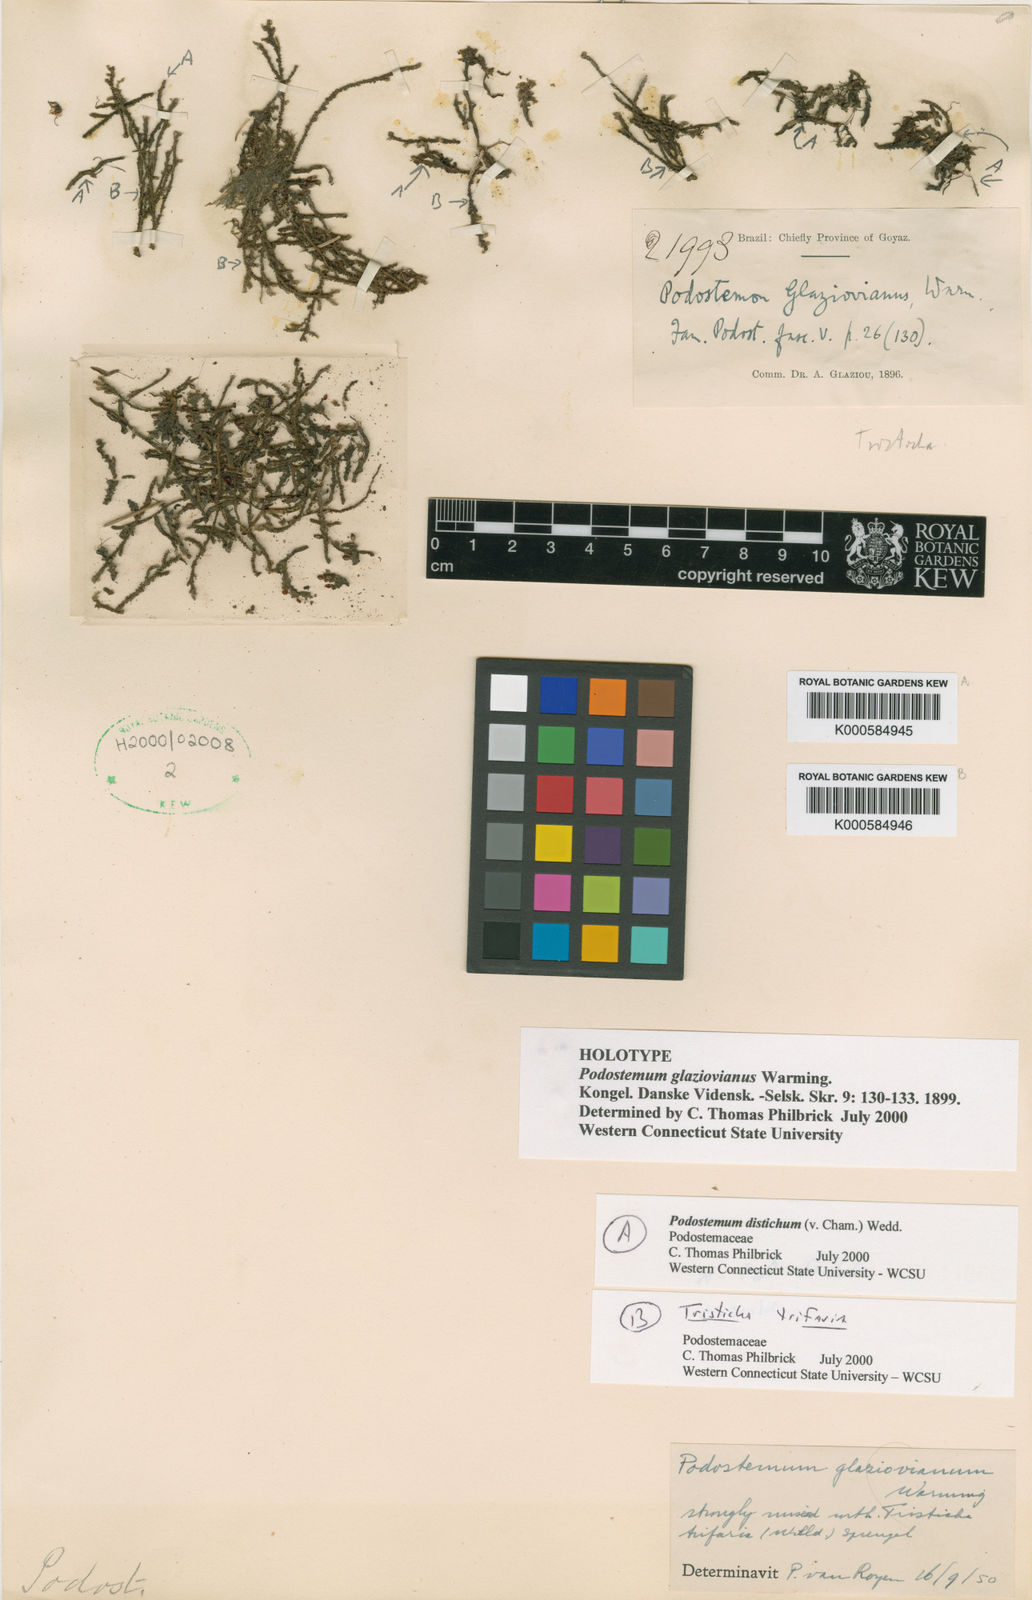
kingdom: Plantae
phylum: Tracheophyta
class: Magnoliopsida
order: Malpighiales
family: Podostemaceae
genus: Podostemum
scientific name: Podostemum distichum
